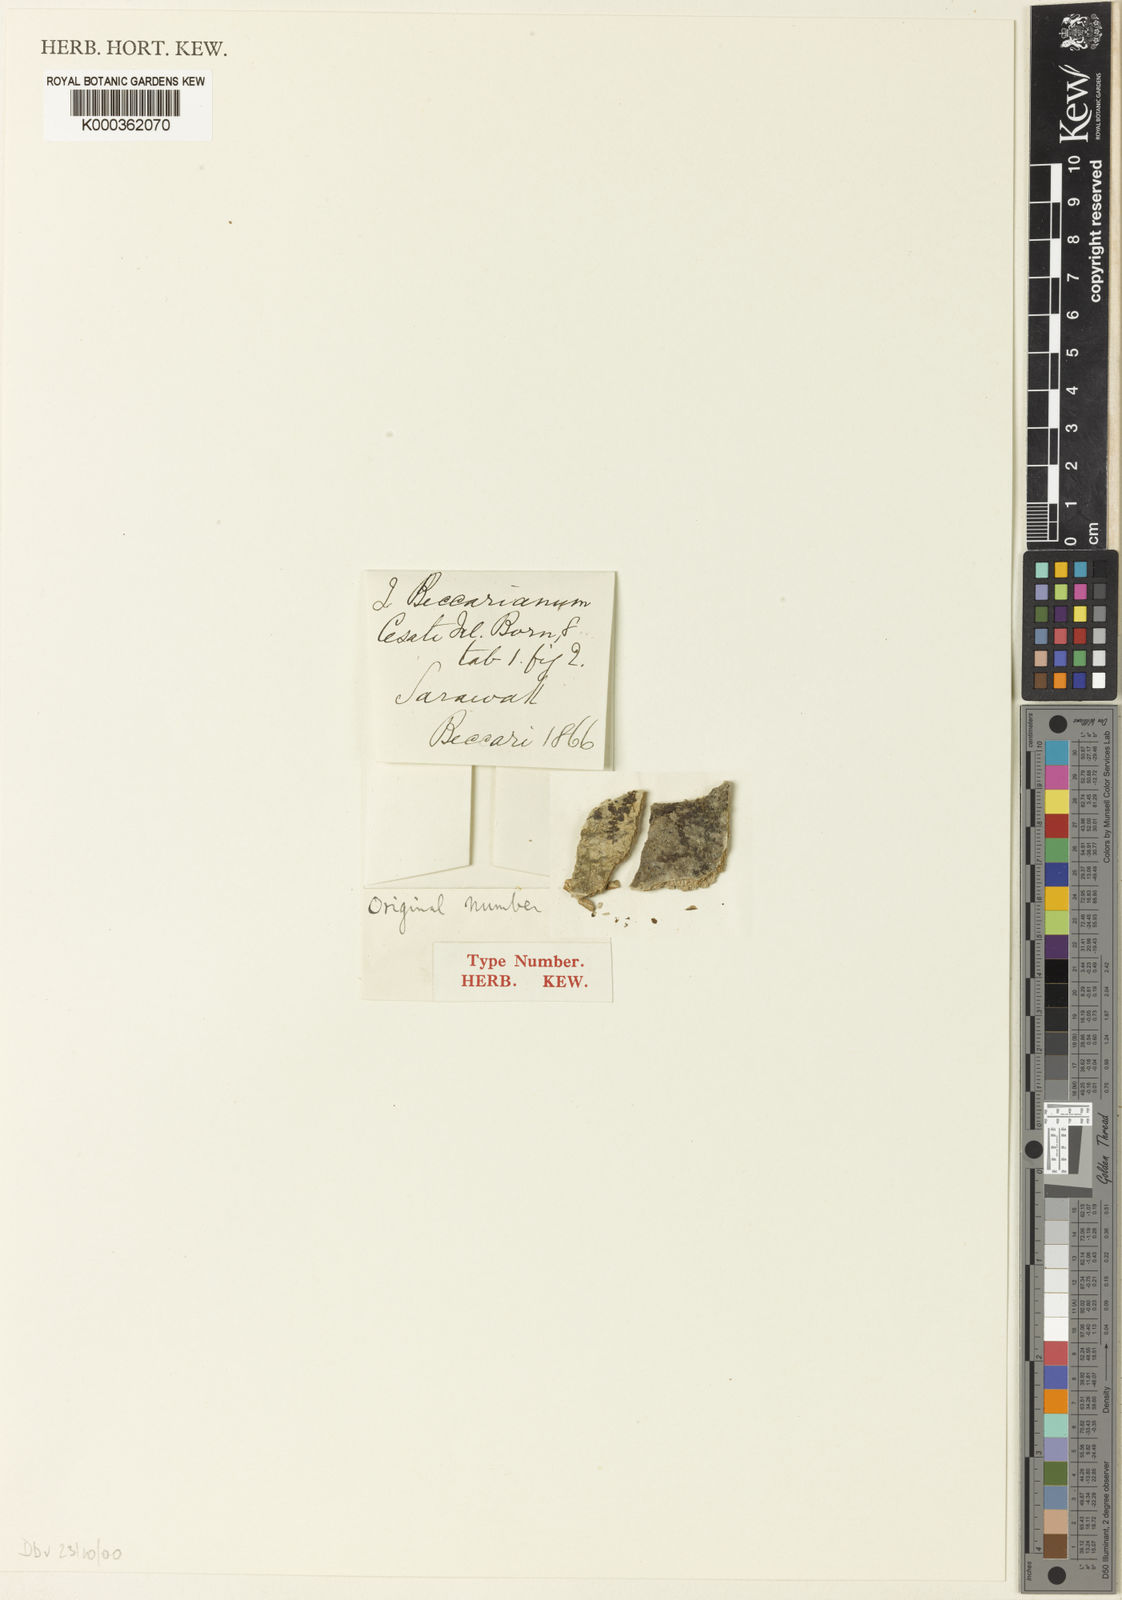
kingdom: Plantae
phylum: Tracheophyta
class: Polypodiopsida
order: Hymenophyllales
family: Hymenophyllaceae
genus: Didymoglossum
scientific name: Didymoglossum motleyi
